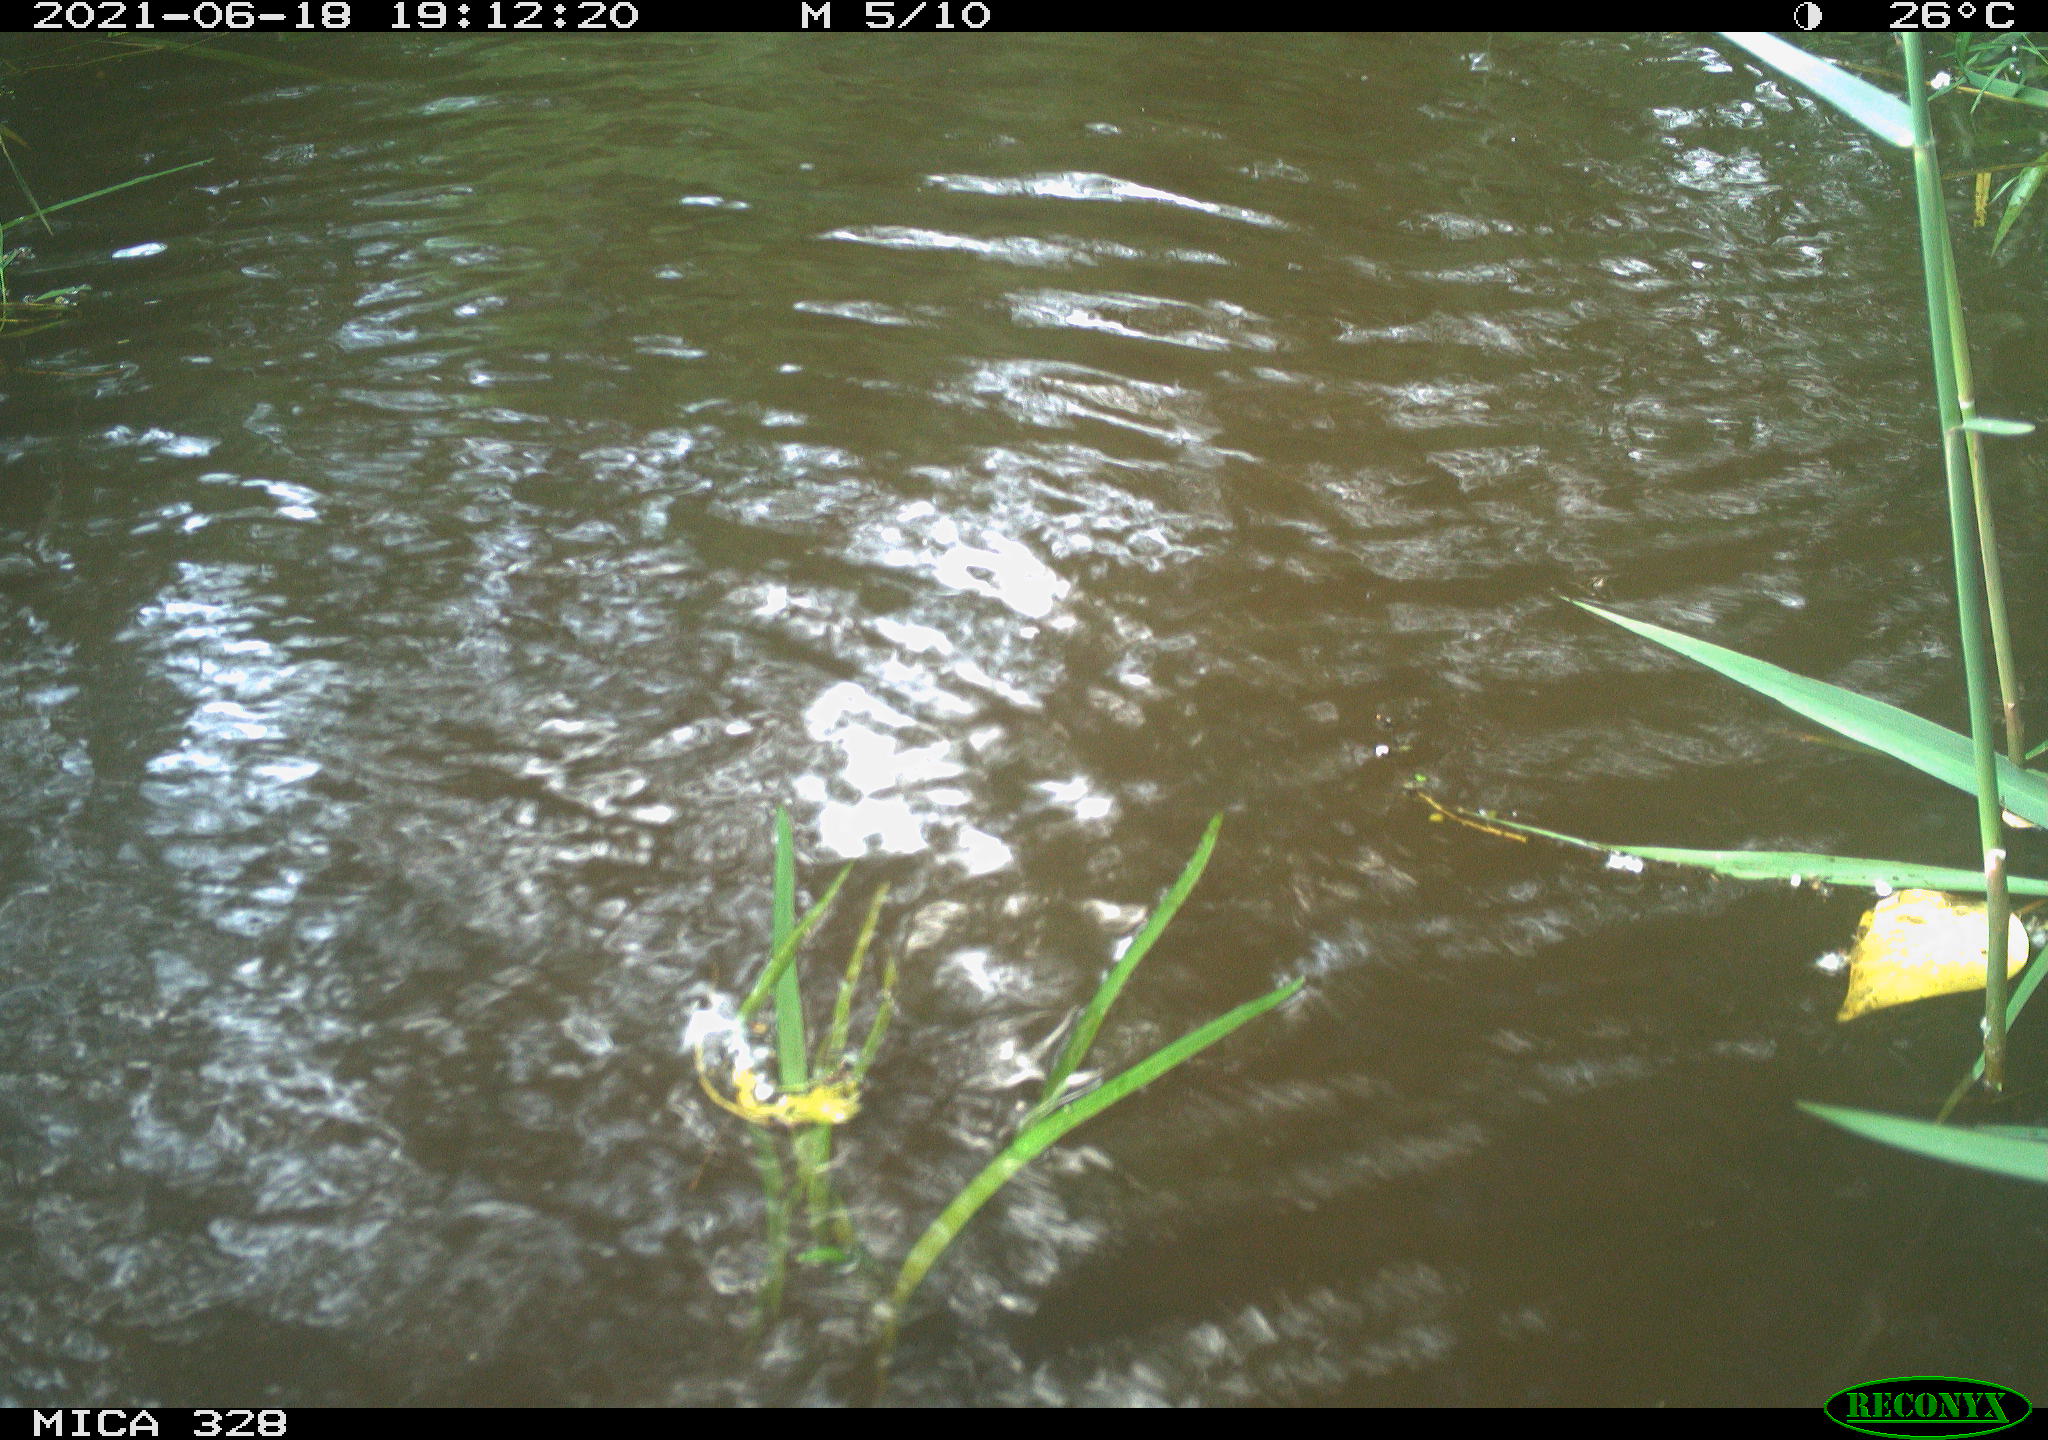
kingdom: Animalia
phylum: Chordata
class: Mammalia
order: Rodentia
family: Cricetidae
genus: Ondatra
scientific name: Ondatra zibethicus
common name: Muskrat
